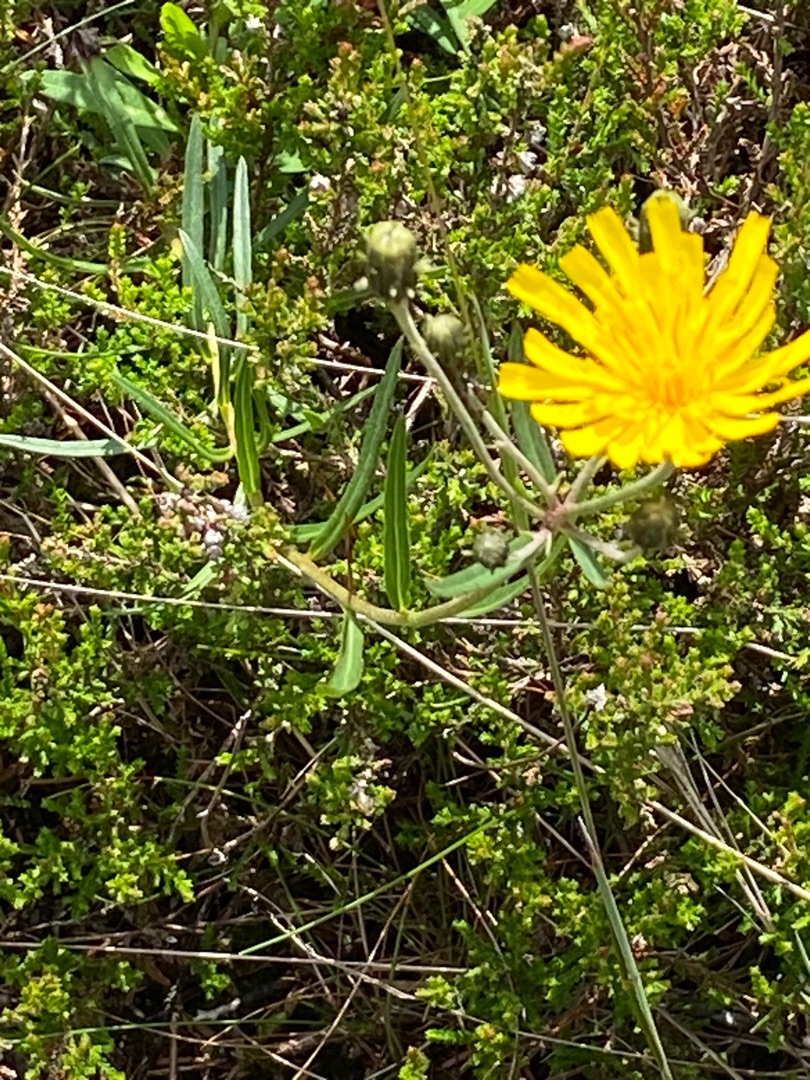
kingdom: Plantae
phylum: Tracheophyta
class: Magnoliopsida
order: Asterales
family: Asteraceae
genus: Hieracium
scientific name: Hieracium umbellatum
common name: Smalbladet høgeurt
